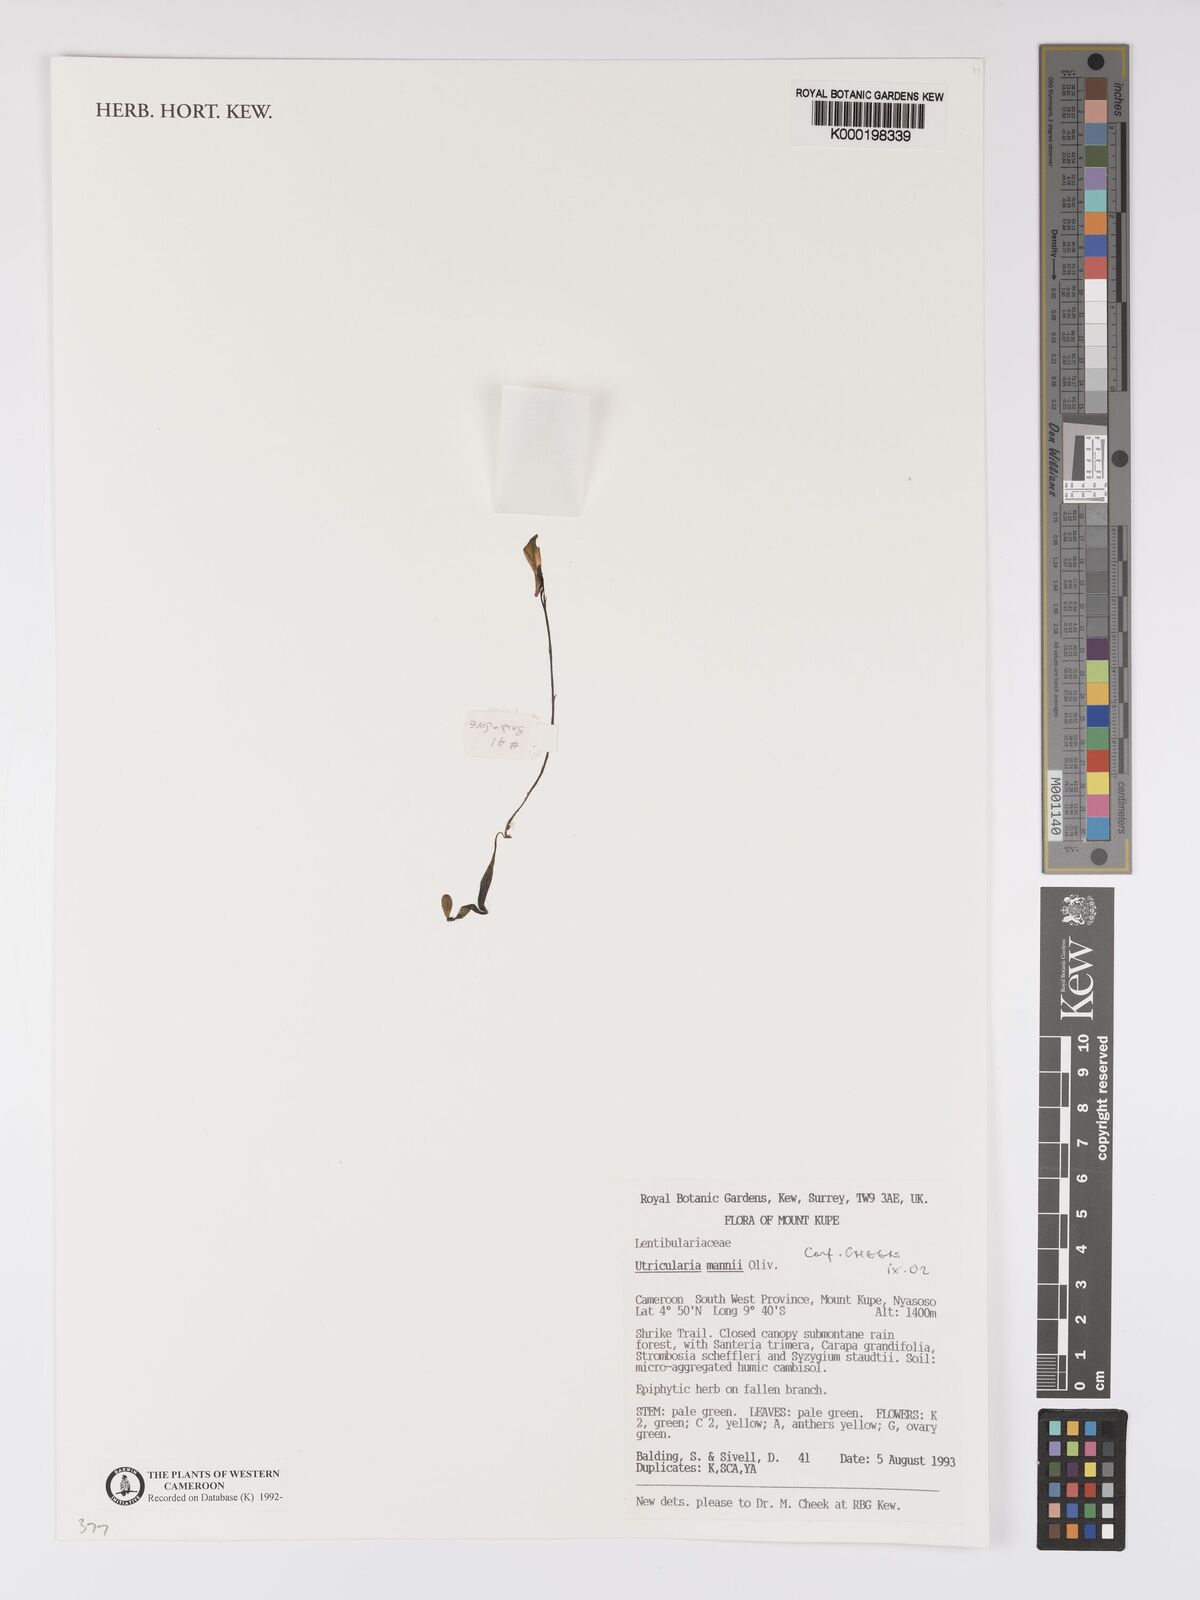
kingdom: Plantae
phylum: Tracheophyta
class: Magnoliopsida
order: Lamiales
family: Lentibulariaceae
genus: Utricularia
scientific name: Utricularia mannii
